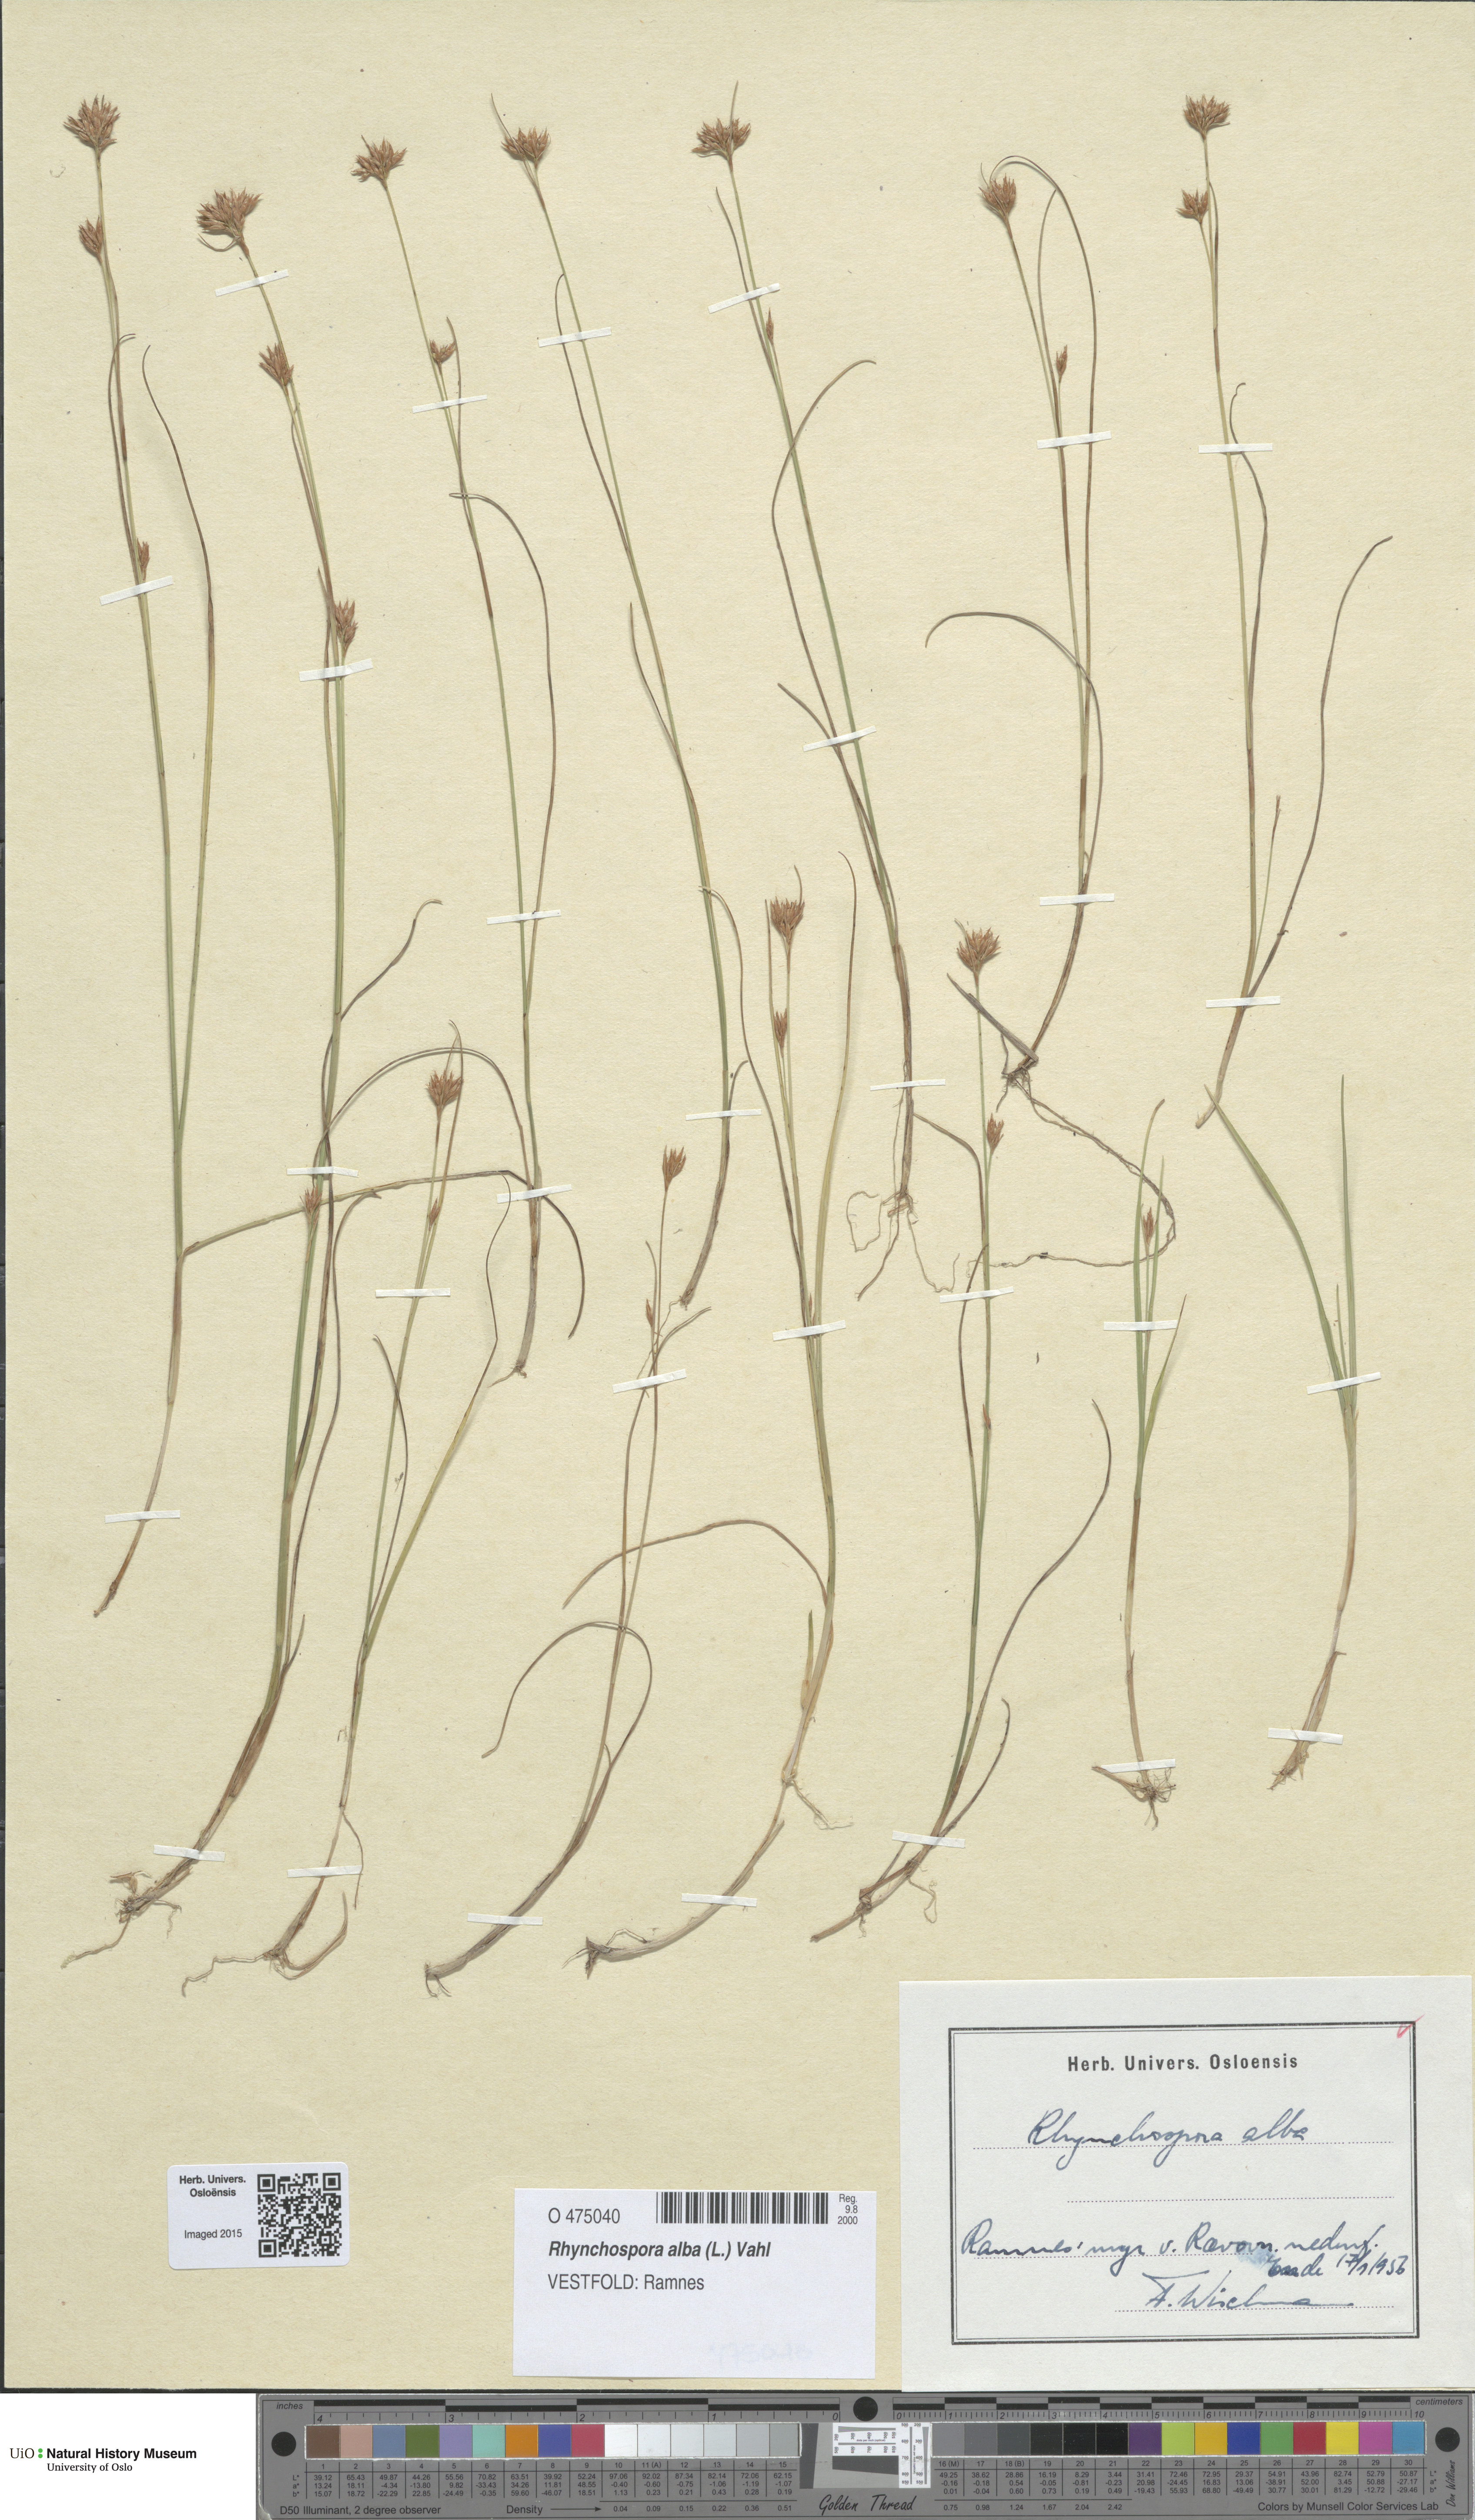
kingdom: Plantae
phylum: Tracheophyta
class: Liliopsida
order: Poales
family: Cyperaceae
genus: Rhynchospora
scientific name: Rhynchospora alba
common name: White beak-sedge
